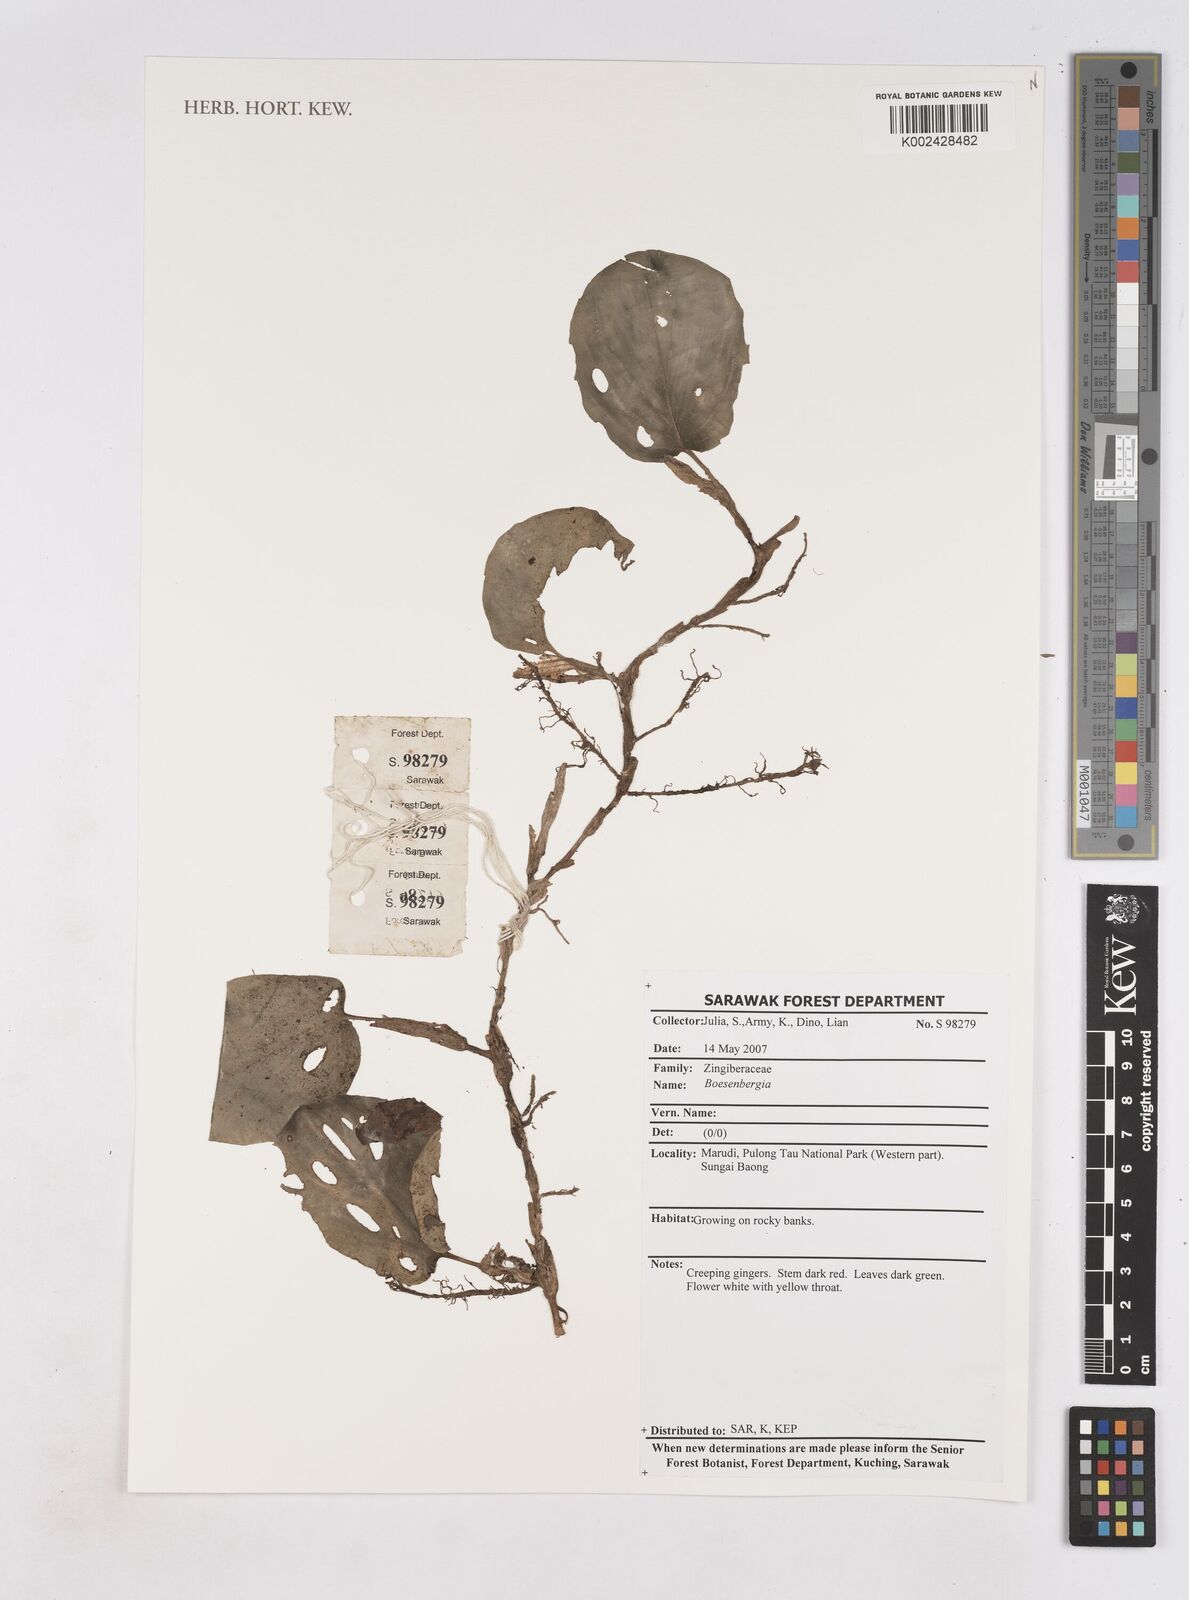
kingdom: Plantae
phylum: Tracheophyta
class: Liliopsida
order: Zingiberales
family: Zingiberaceae
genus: Boesenbergia
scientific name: Boesenbergia
